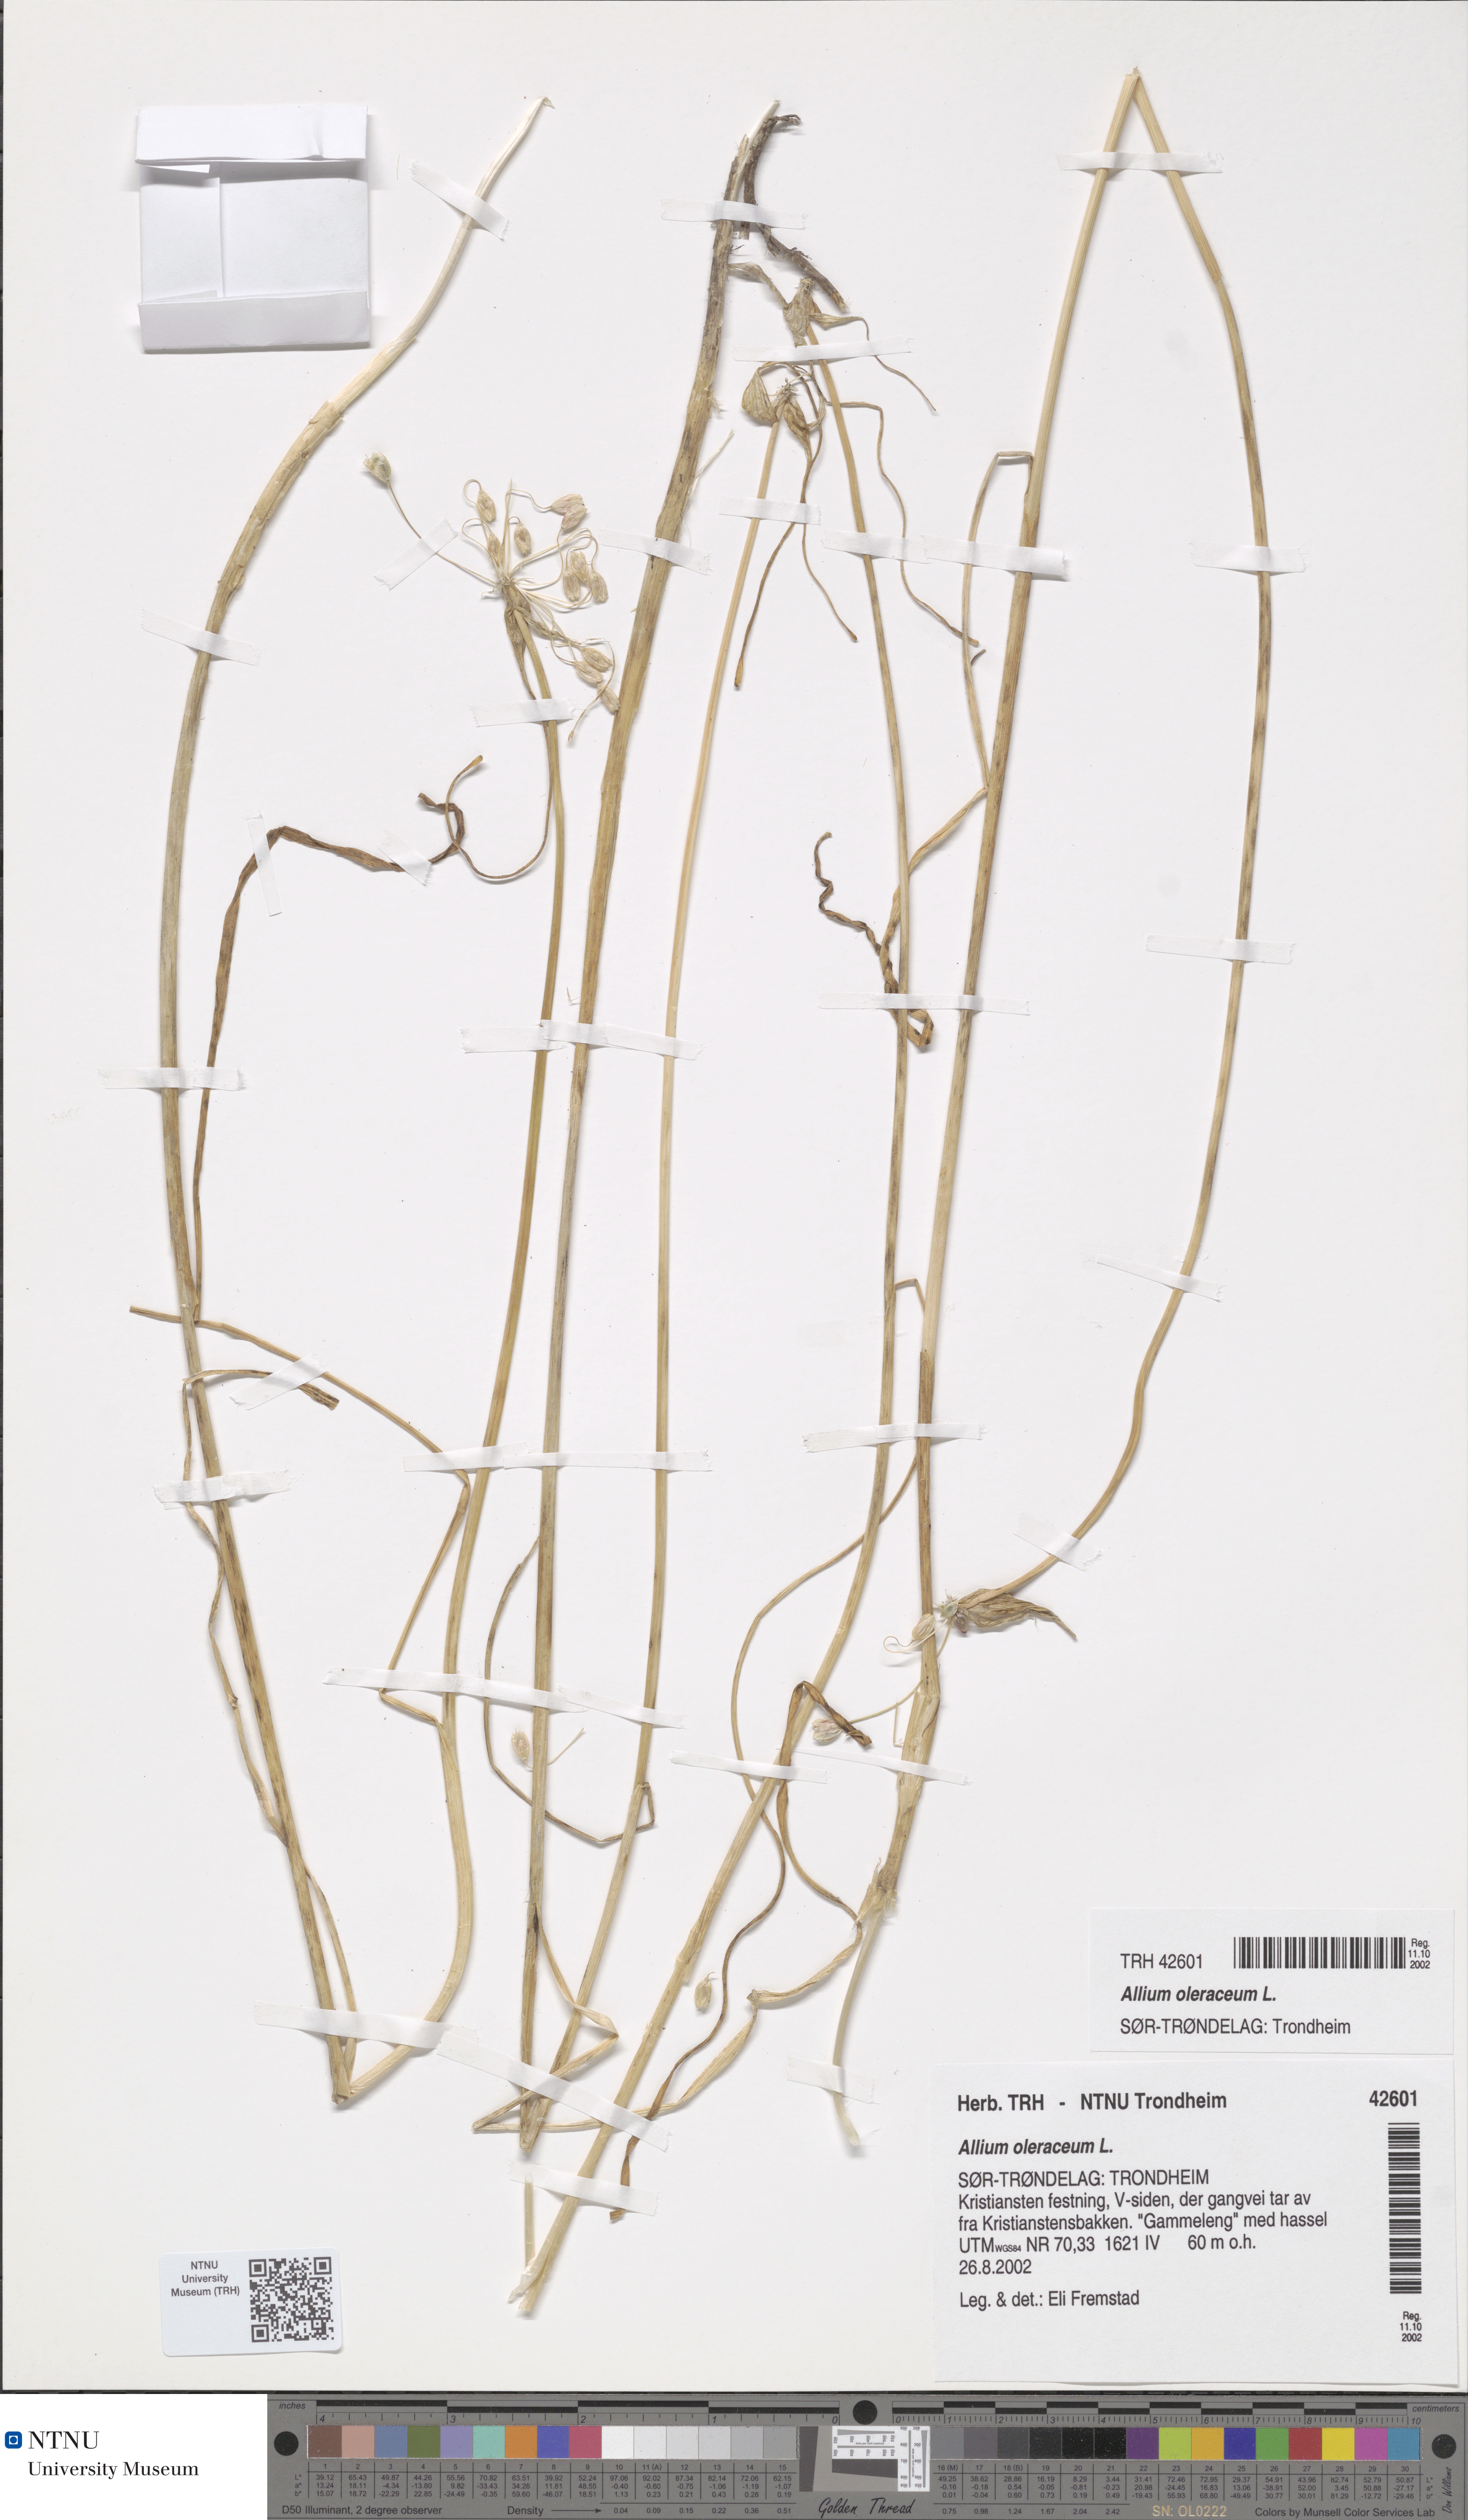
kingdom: Plantae
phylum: Tracheophyta
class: Liliopsida
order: Asparagales
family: Amaryllidaceae
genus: Allium
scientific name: Allium oleraceum
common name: Field garlic
